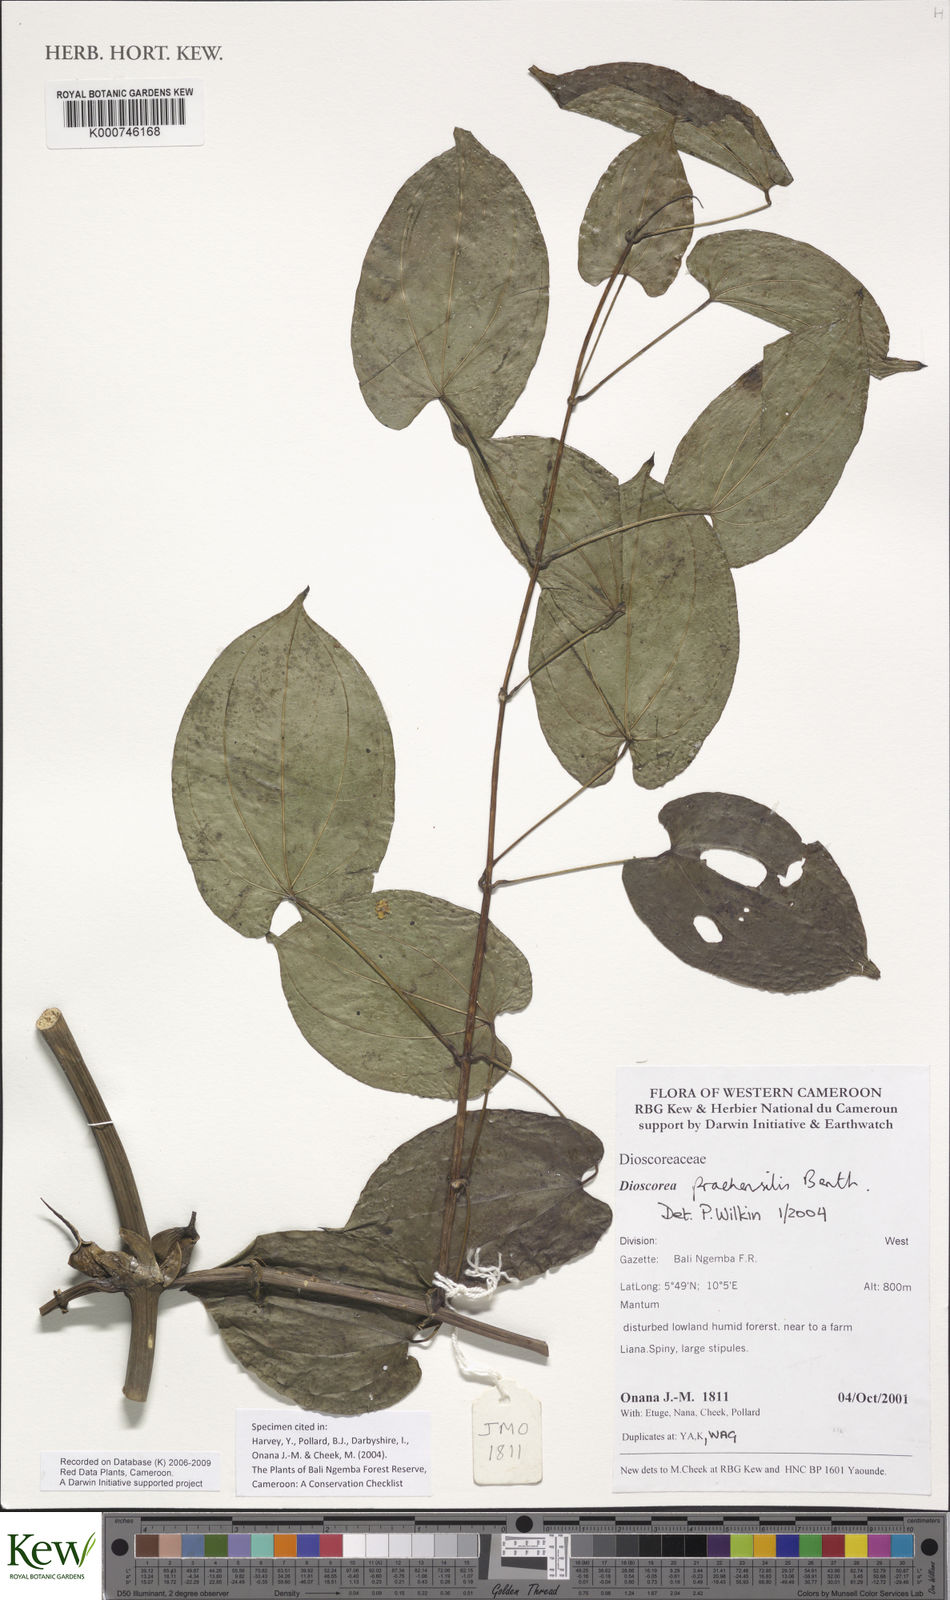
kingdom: Plantae
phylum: Tracheophyta
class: Liliopsida
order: Dioscoreales
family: Dioscoreaceae
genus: Dioscorea
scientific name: Dioscorea praehensilis
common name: Bush yam
